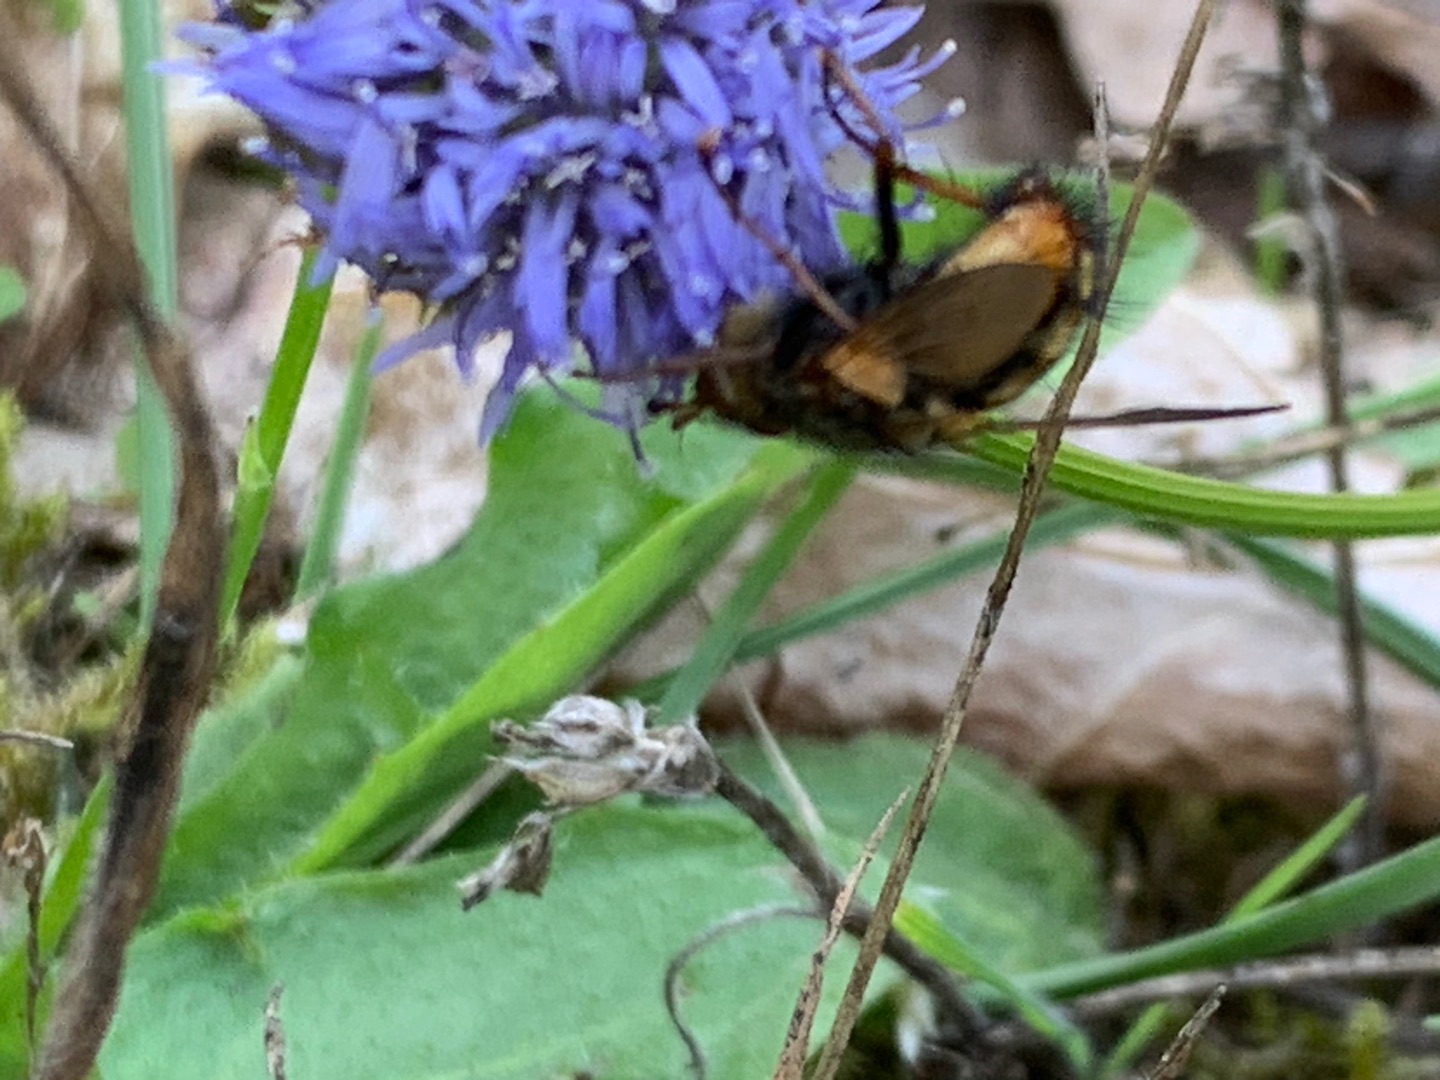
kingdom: Animalia
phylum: Arthropoda
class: Insecta
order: Diptera
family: Tachinidae
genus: Tachina
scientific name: Tachina fera
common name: Mellemfluen oskar
